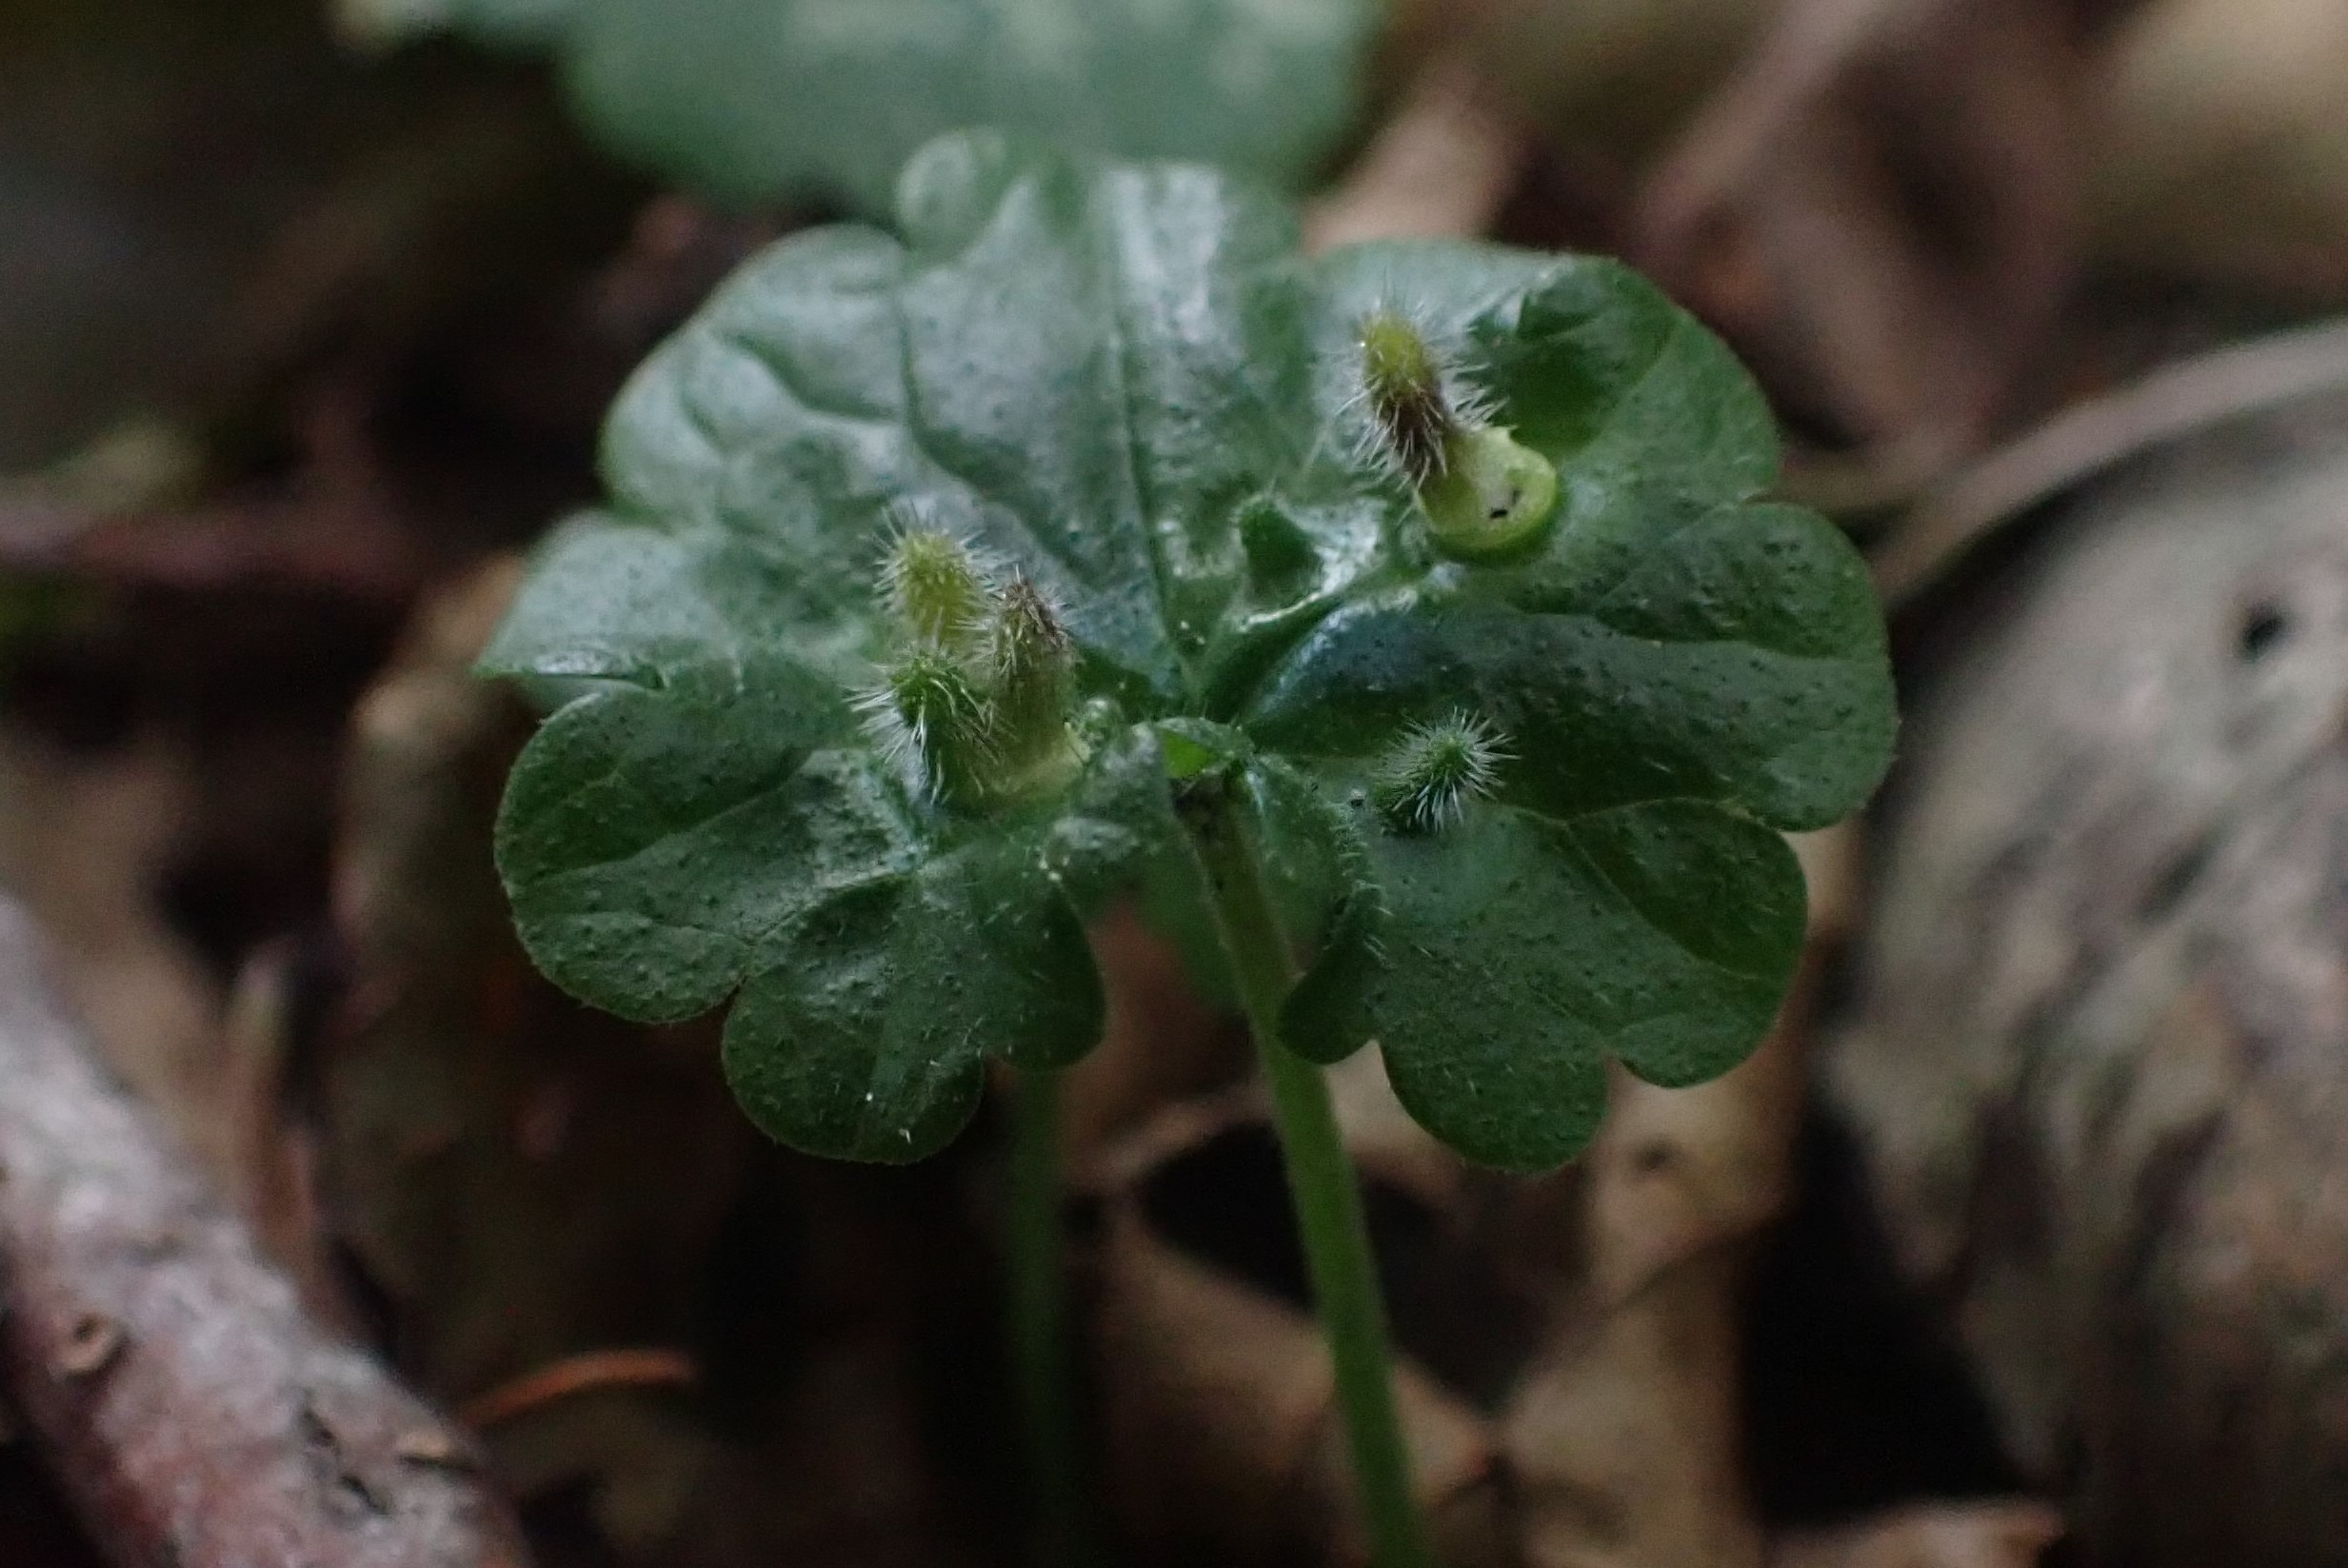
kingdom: Animalia
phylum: Arthropoda
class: Insecta
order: Diptera
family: Cecidomyiidae
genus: Rondaniola
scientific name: Rondaniola bursaria
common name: Hattifnatgalmyg
